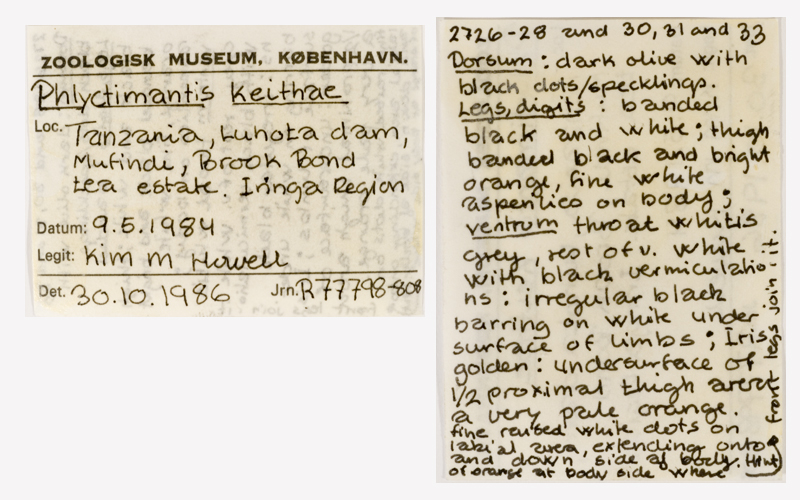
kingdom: Animalia
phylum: Chordata
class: Amphibia
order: Anura
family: Hyperoliidae
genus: Phlyctimantis
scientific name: Phlyctimantis keithae
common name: Keith's striped frog
